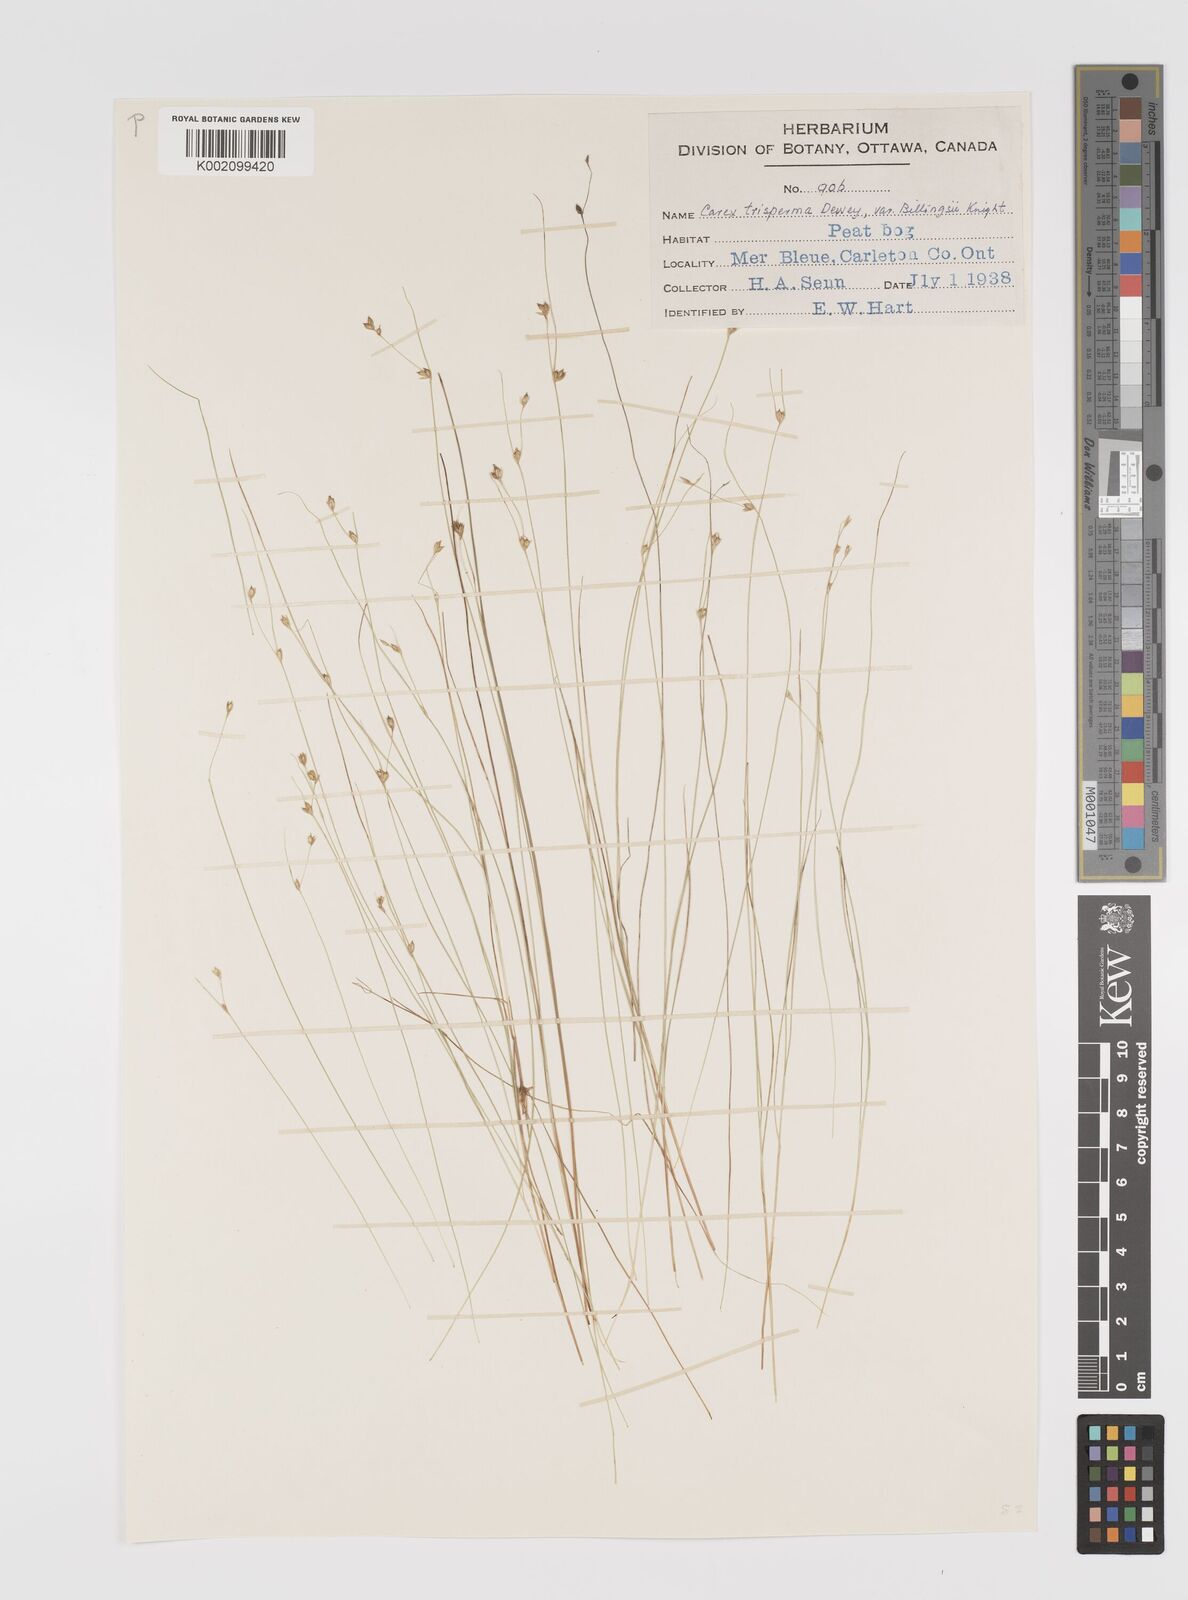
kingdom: Plantae
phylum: Tracheophyta
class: Liliopsida
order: Poales
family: Cyperaceae
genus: Carex
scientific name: Carex trisperma
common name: Three-seeded sedge
